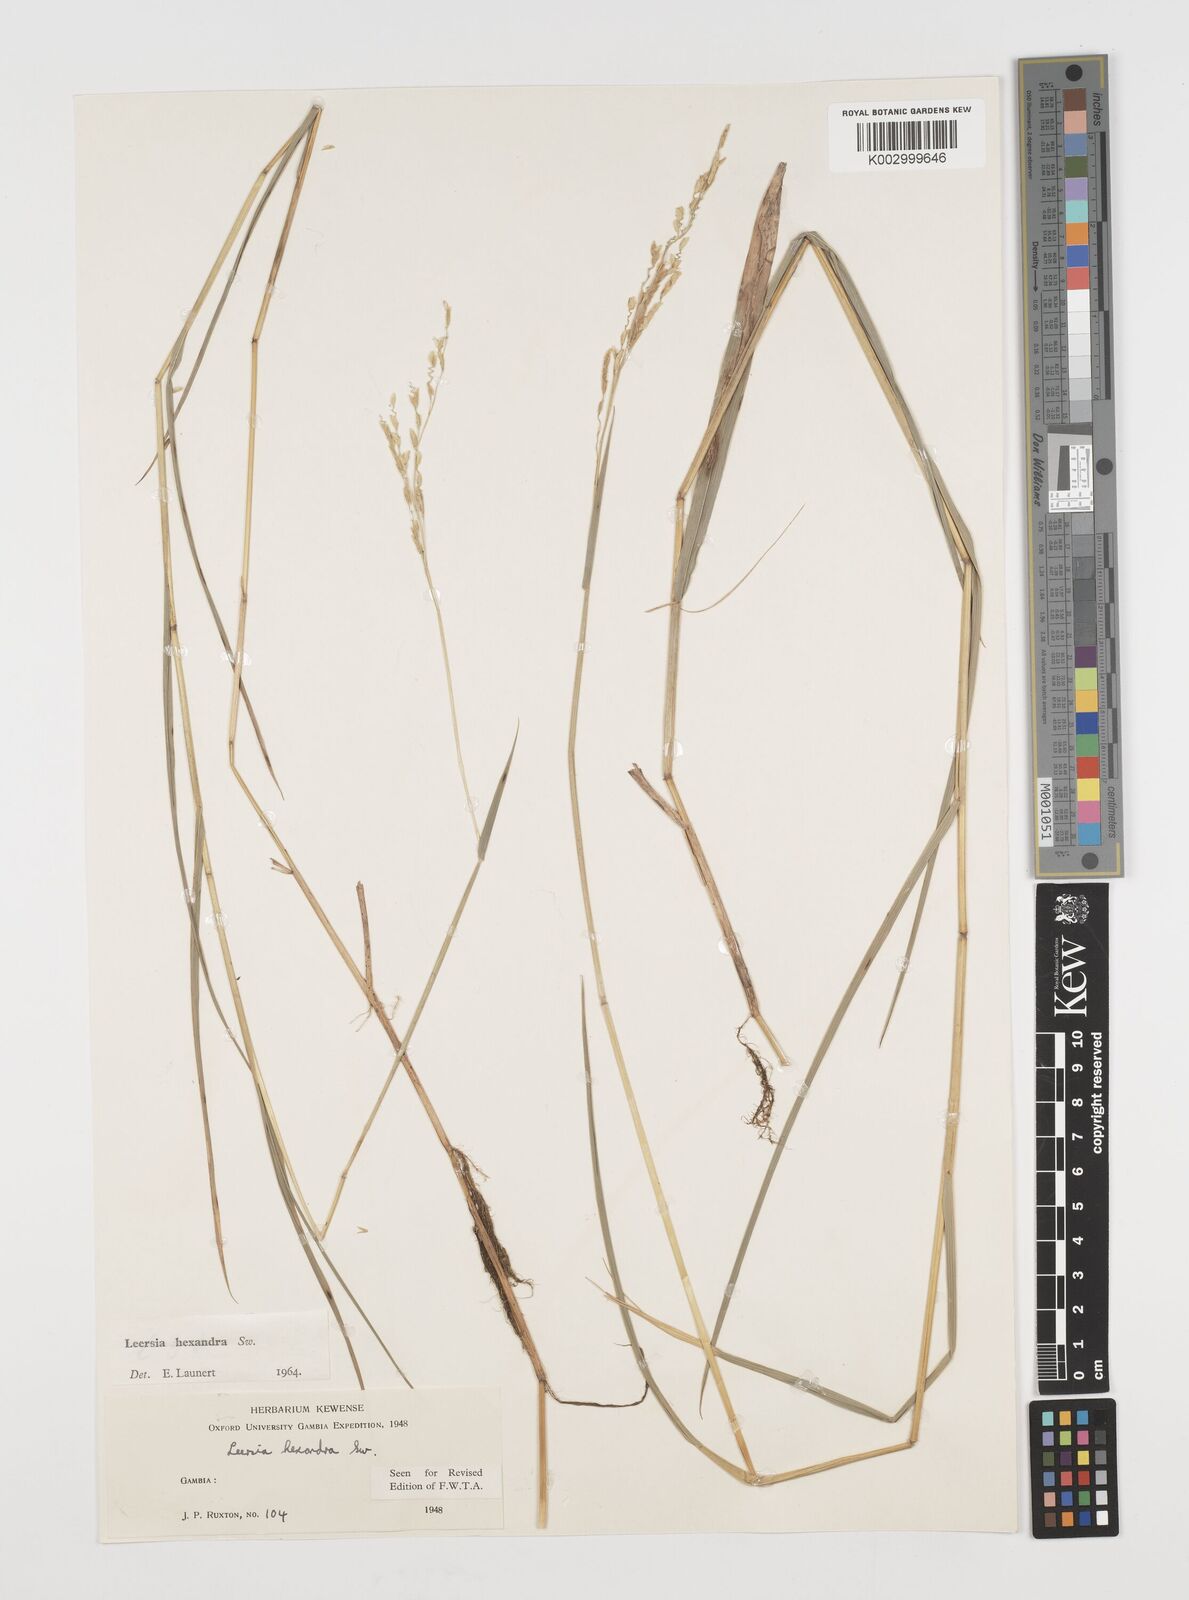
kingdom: Plantae
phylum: Tracheophyta
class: Liliopsida
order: Poales
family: Poaceae
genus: Leersia
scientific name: Leersia hexandra
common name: Southern cut grass
